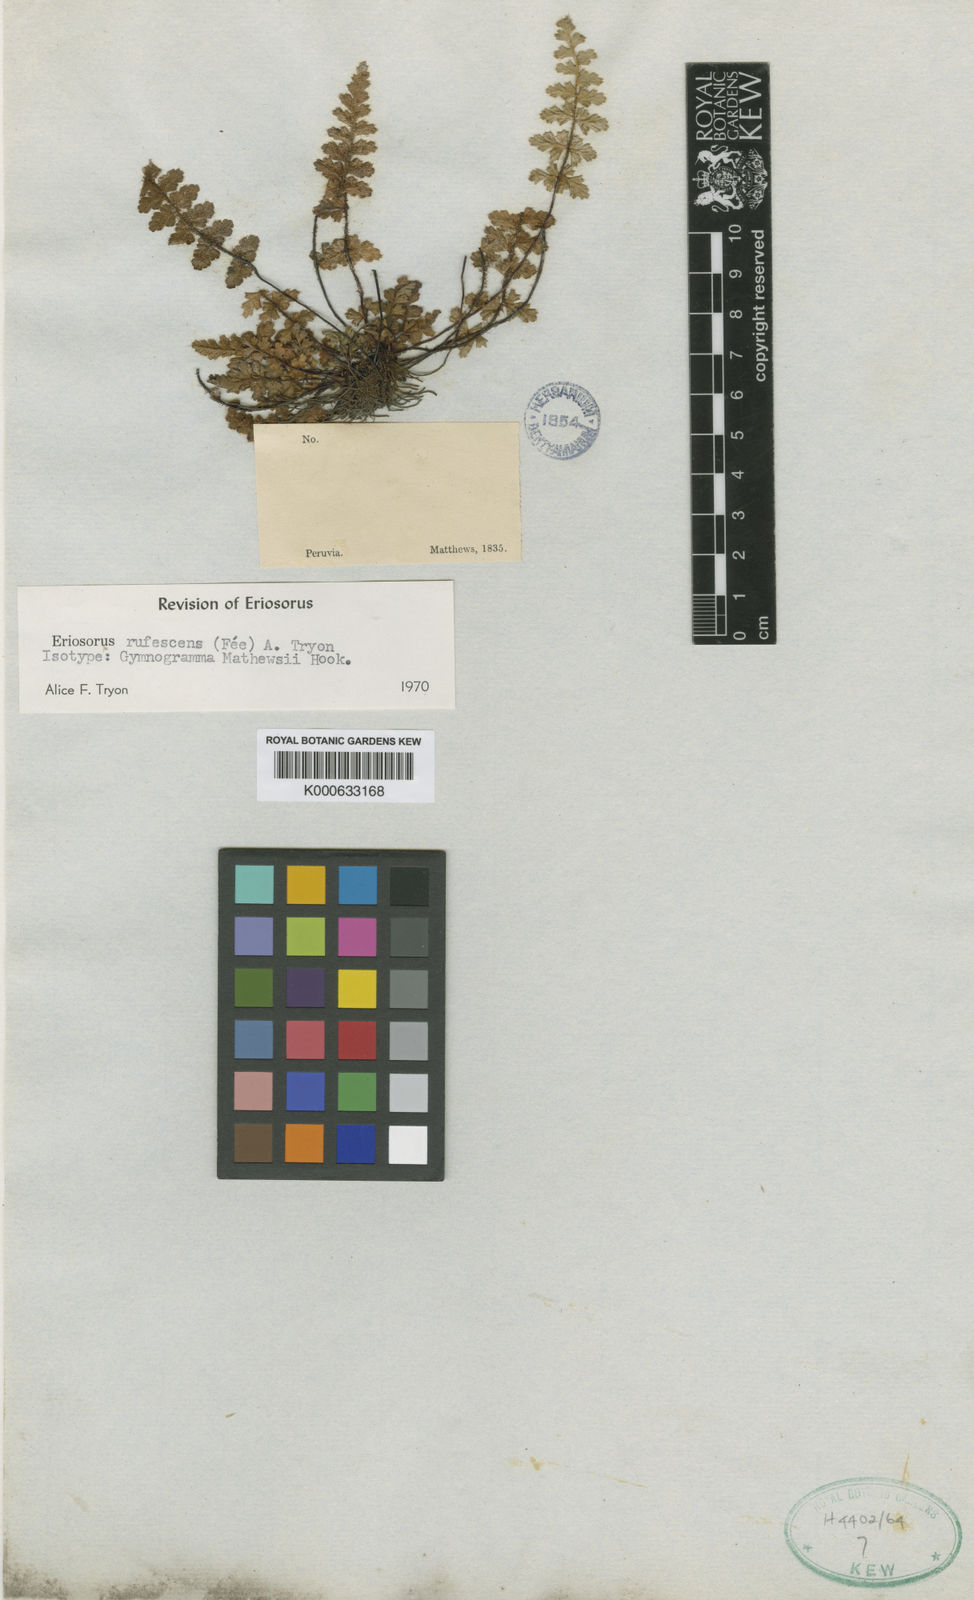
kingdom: Plantae
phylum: Tracheophyta
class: Polypodiopsida
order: Polypodiales
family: Pteridaceae
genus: Jamesonia
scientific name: Jamesonia
